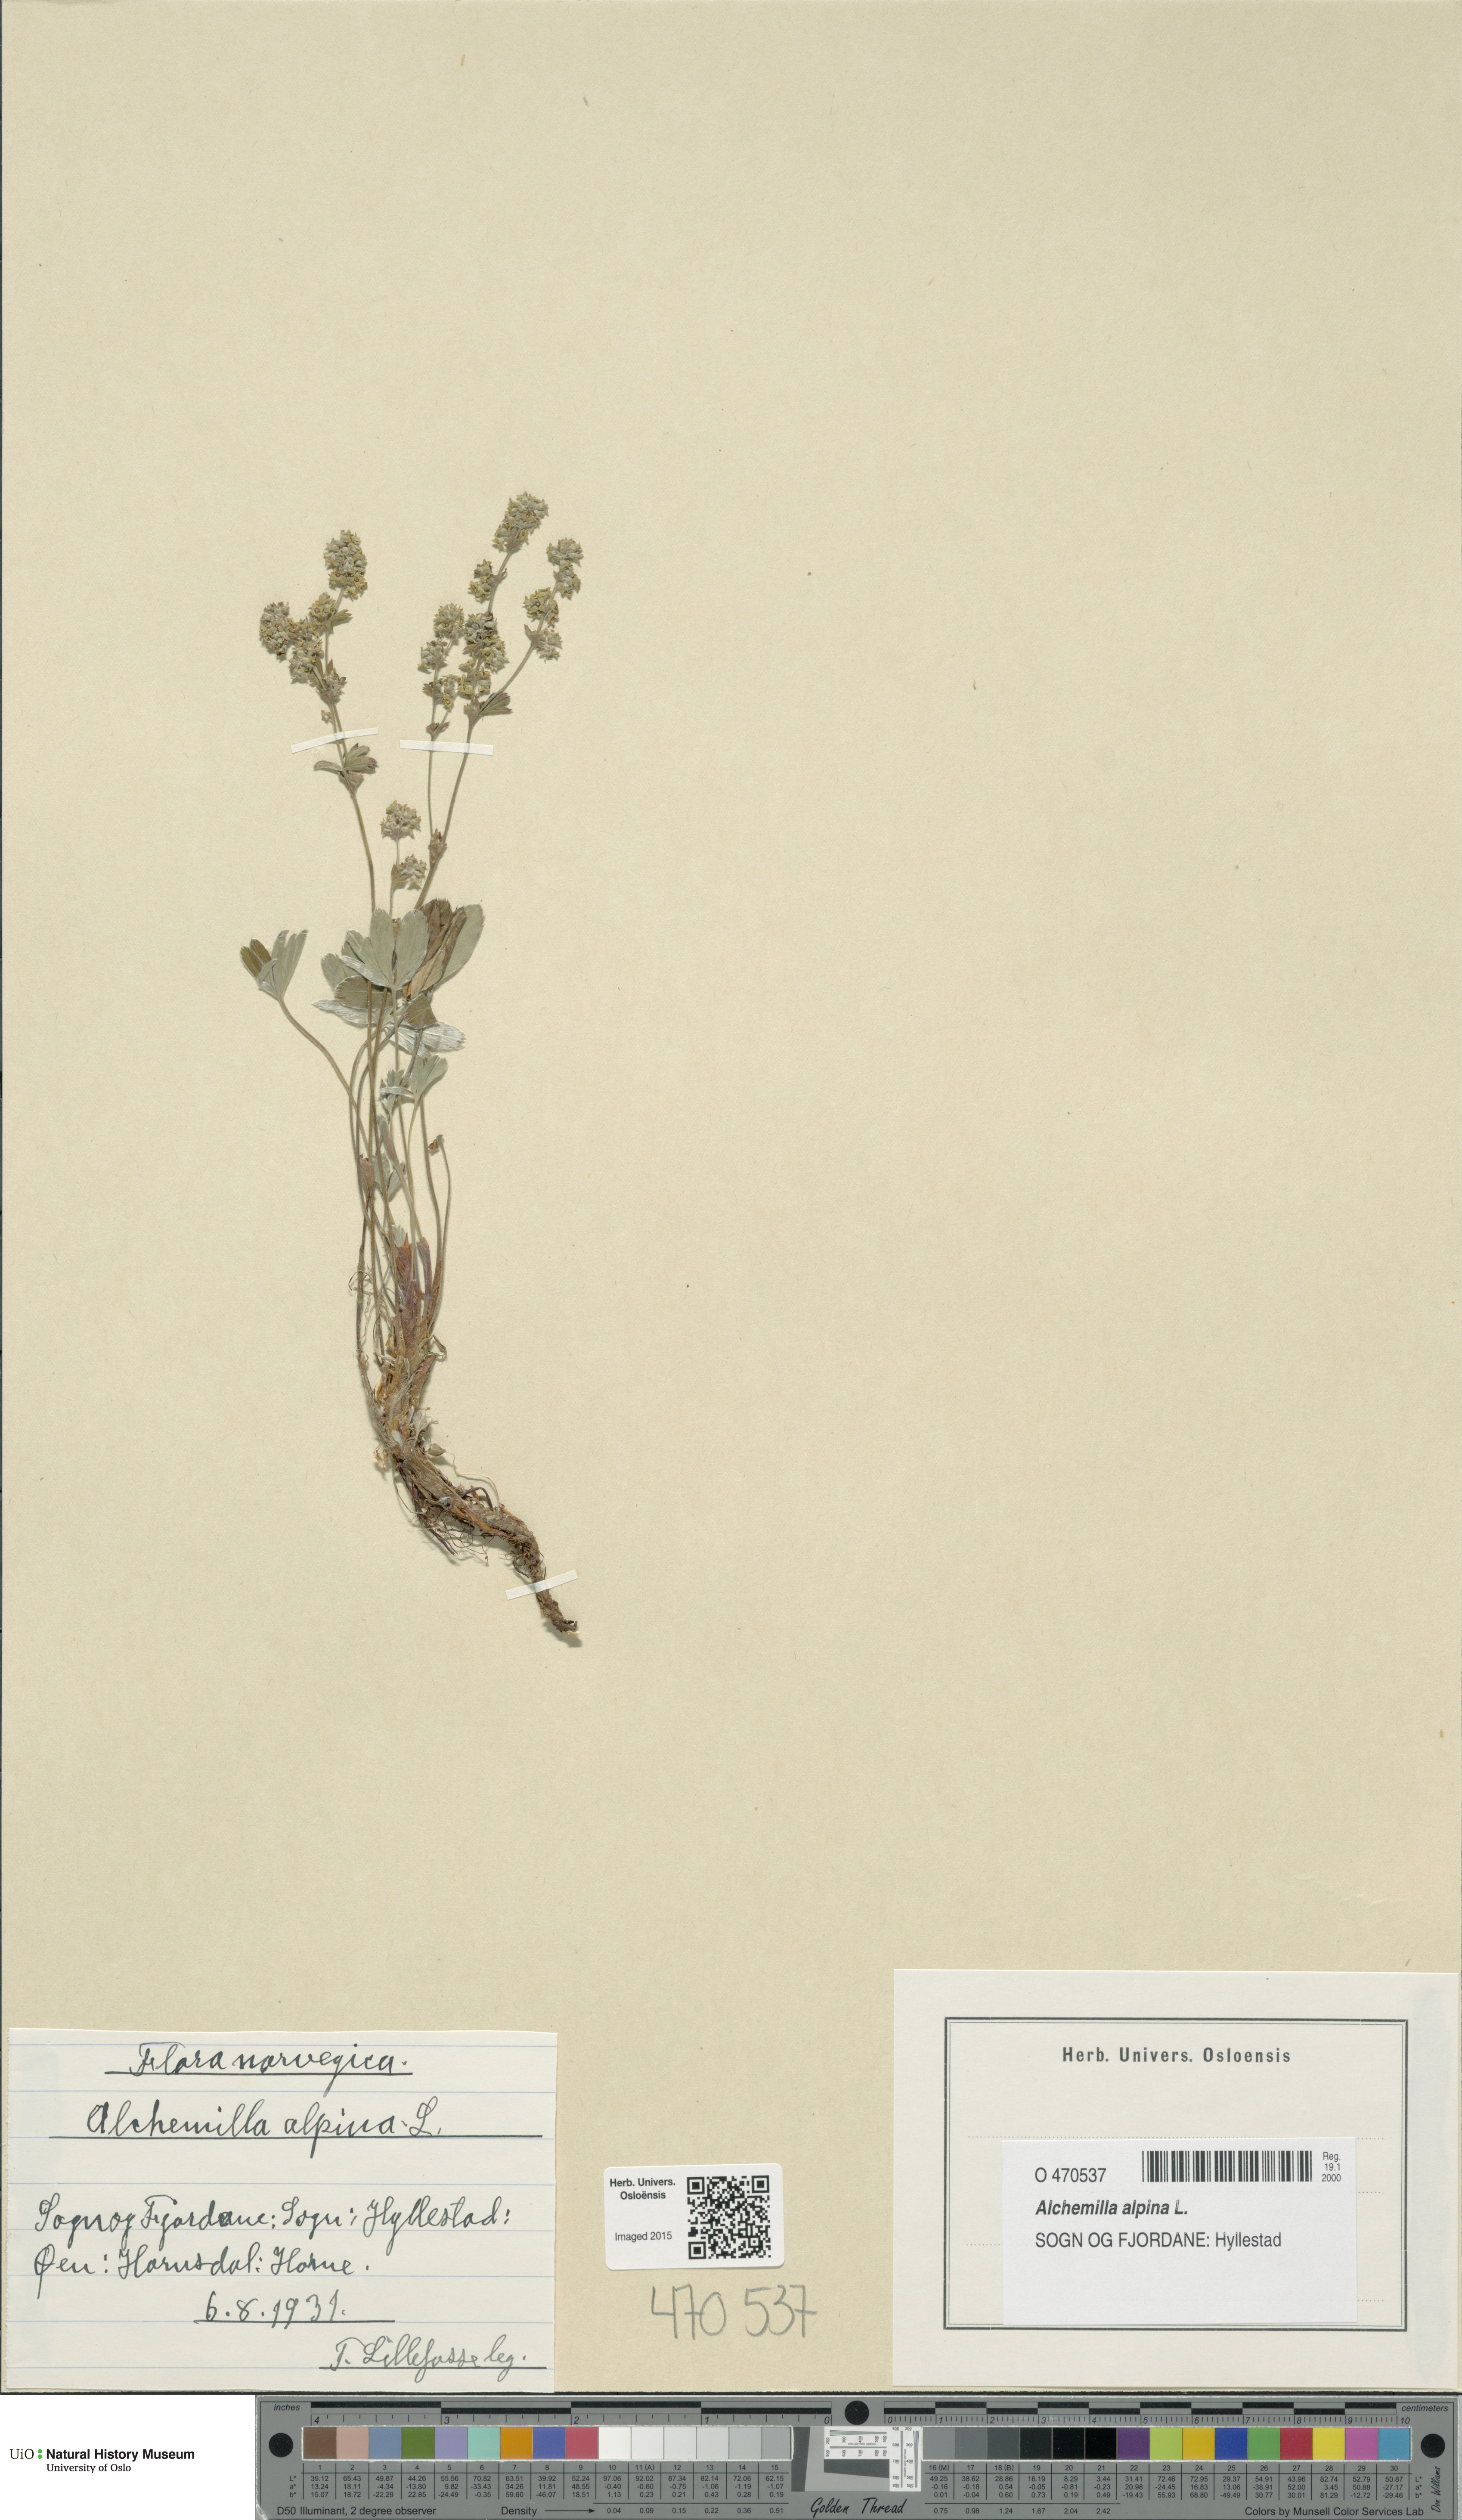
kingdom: Plantae
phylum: Tracheophyta
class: Magnoliopsida
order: Rosales
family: Rosaceae
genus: Alchemilla
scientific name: Alchemilla alpina
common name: Alpine lady's-mantle
